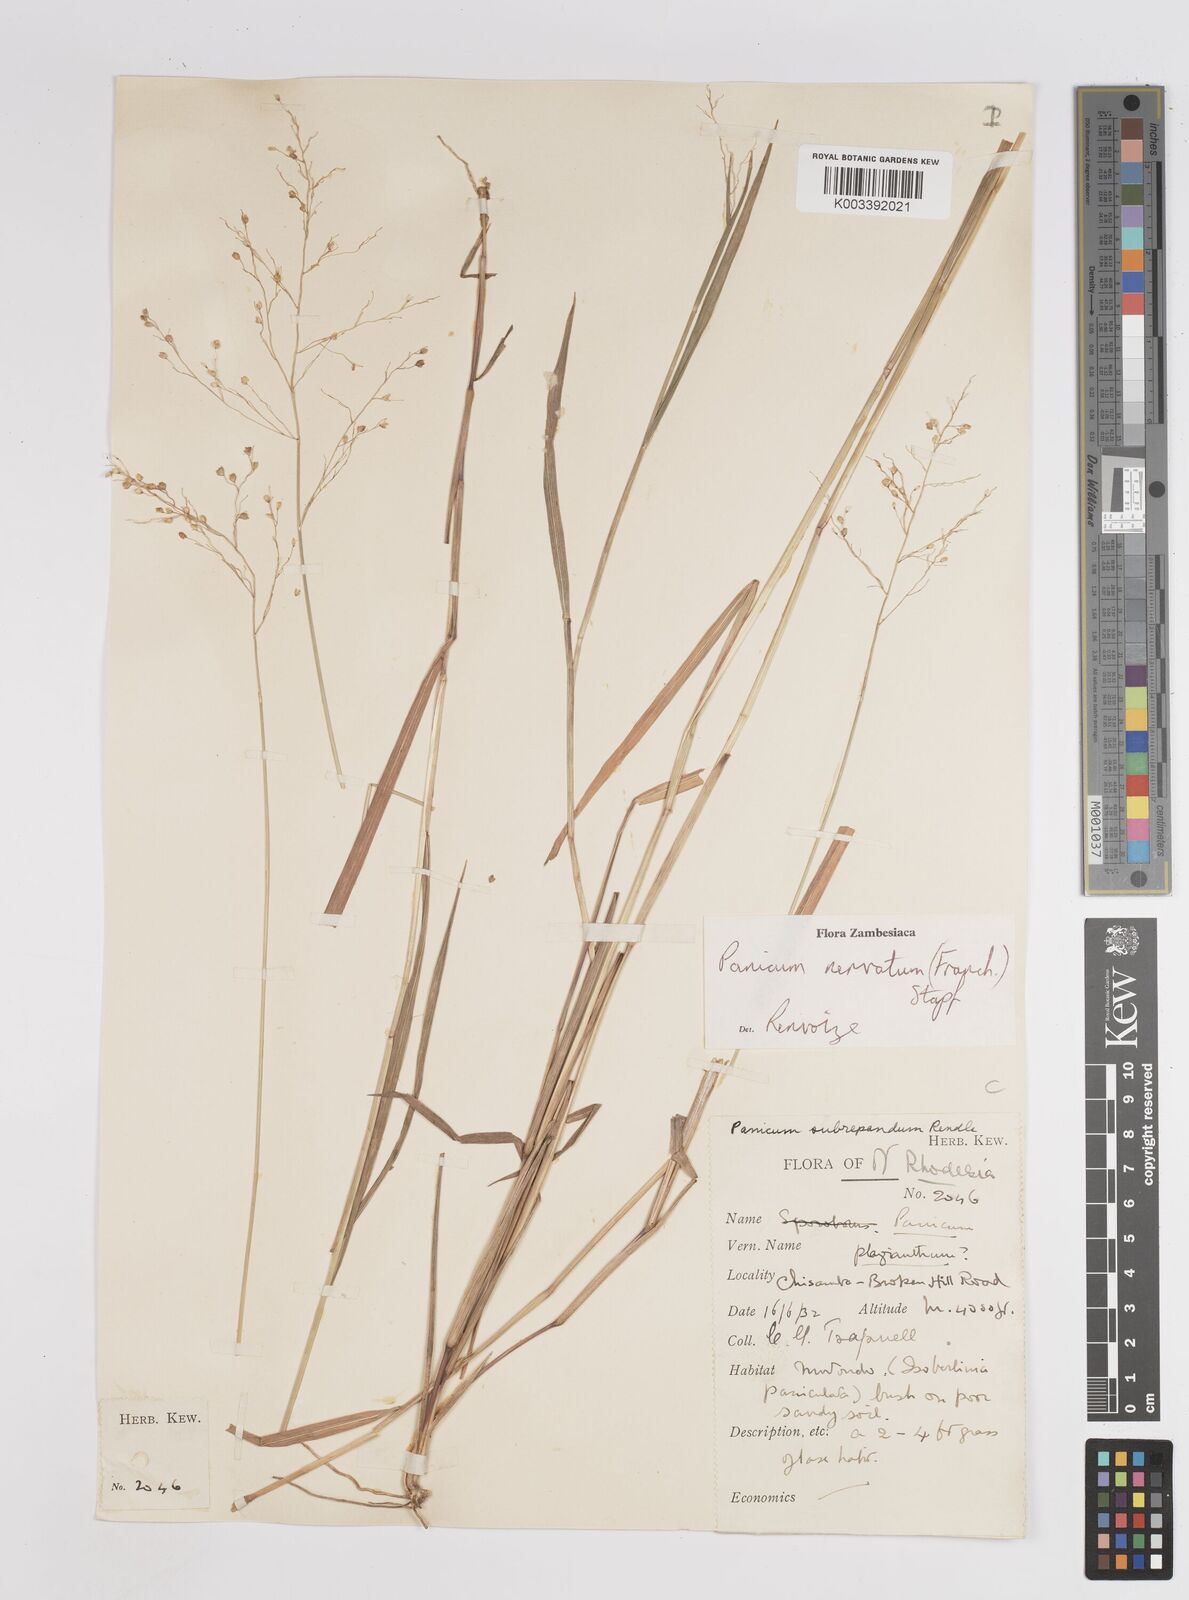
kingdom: Plantae
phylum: Tracheophyta
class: Liliopsida
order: Poales
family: Poaceae
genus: Trichanthecium
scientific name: Trichanthecium nervatum
